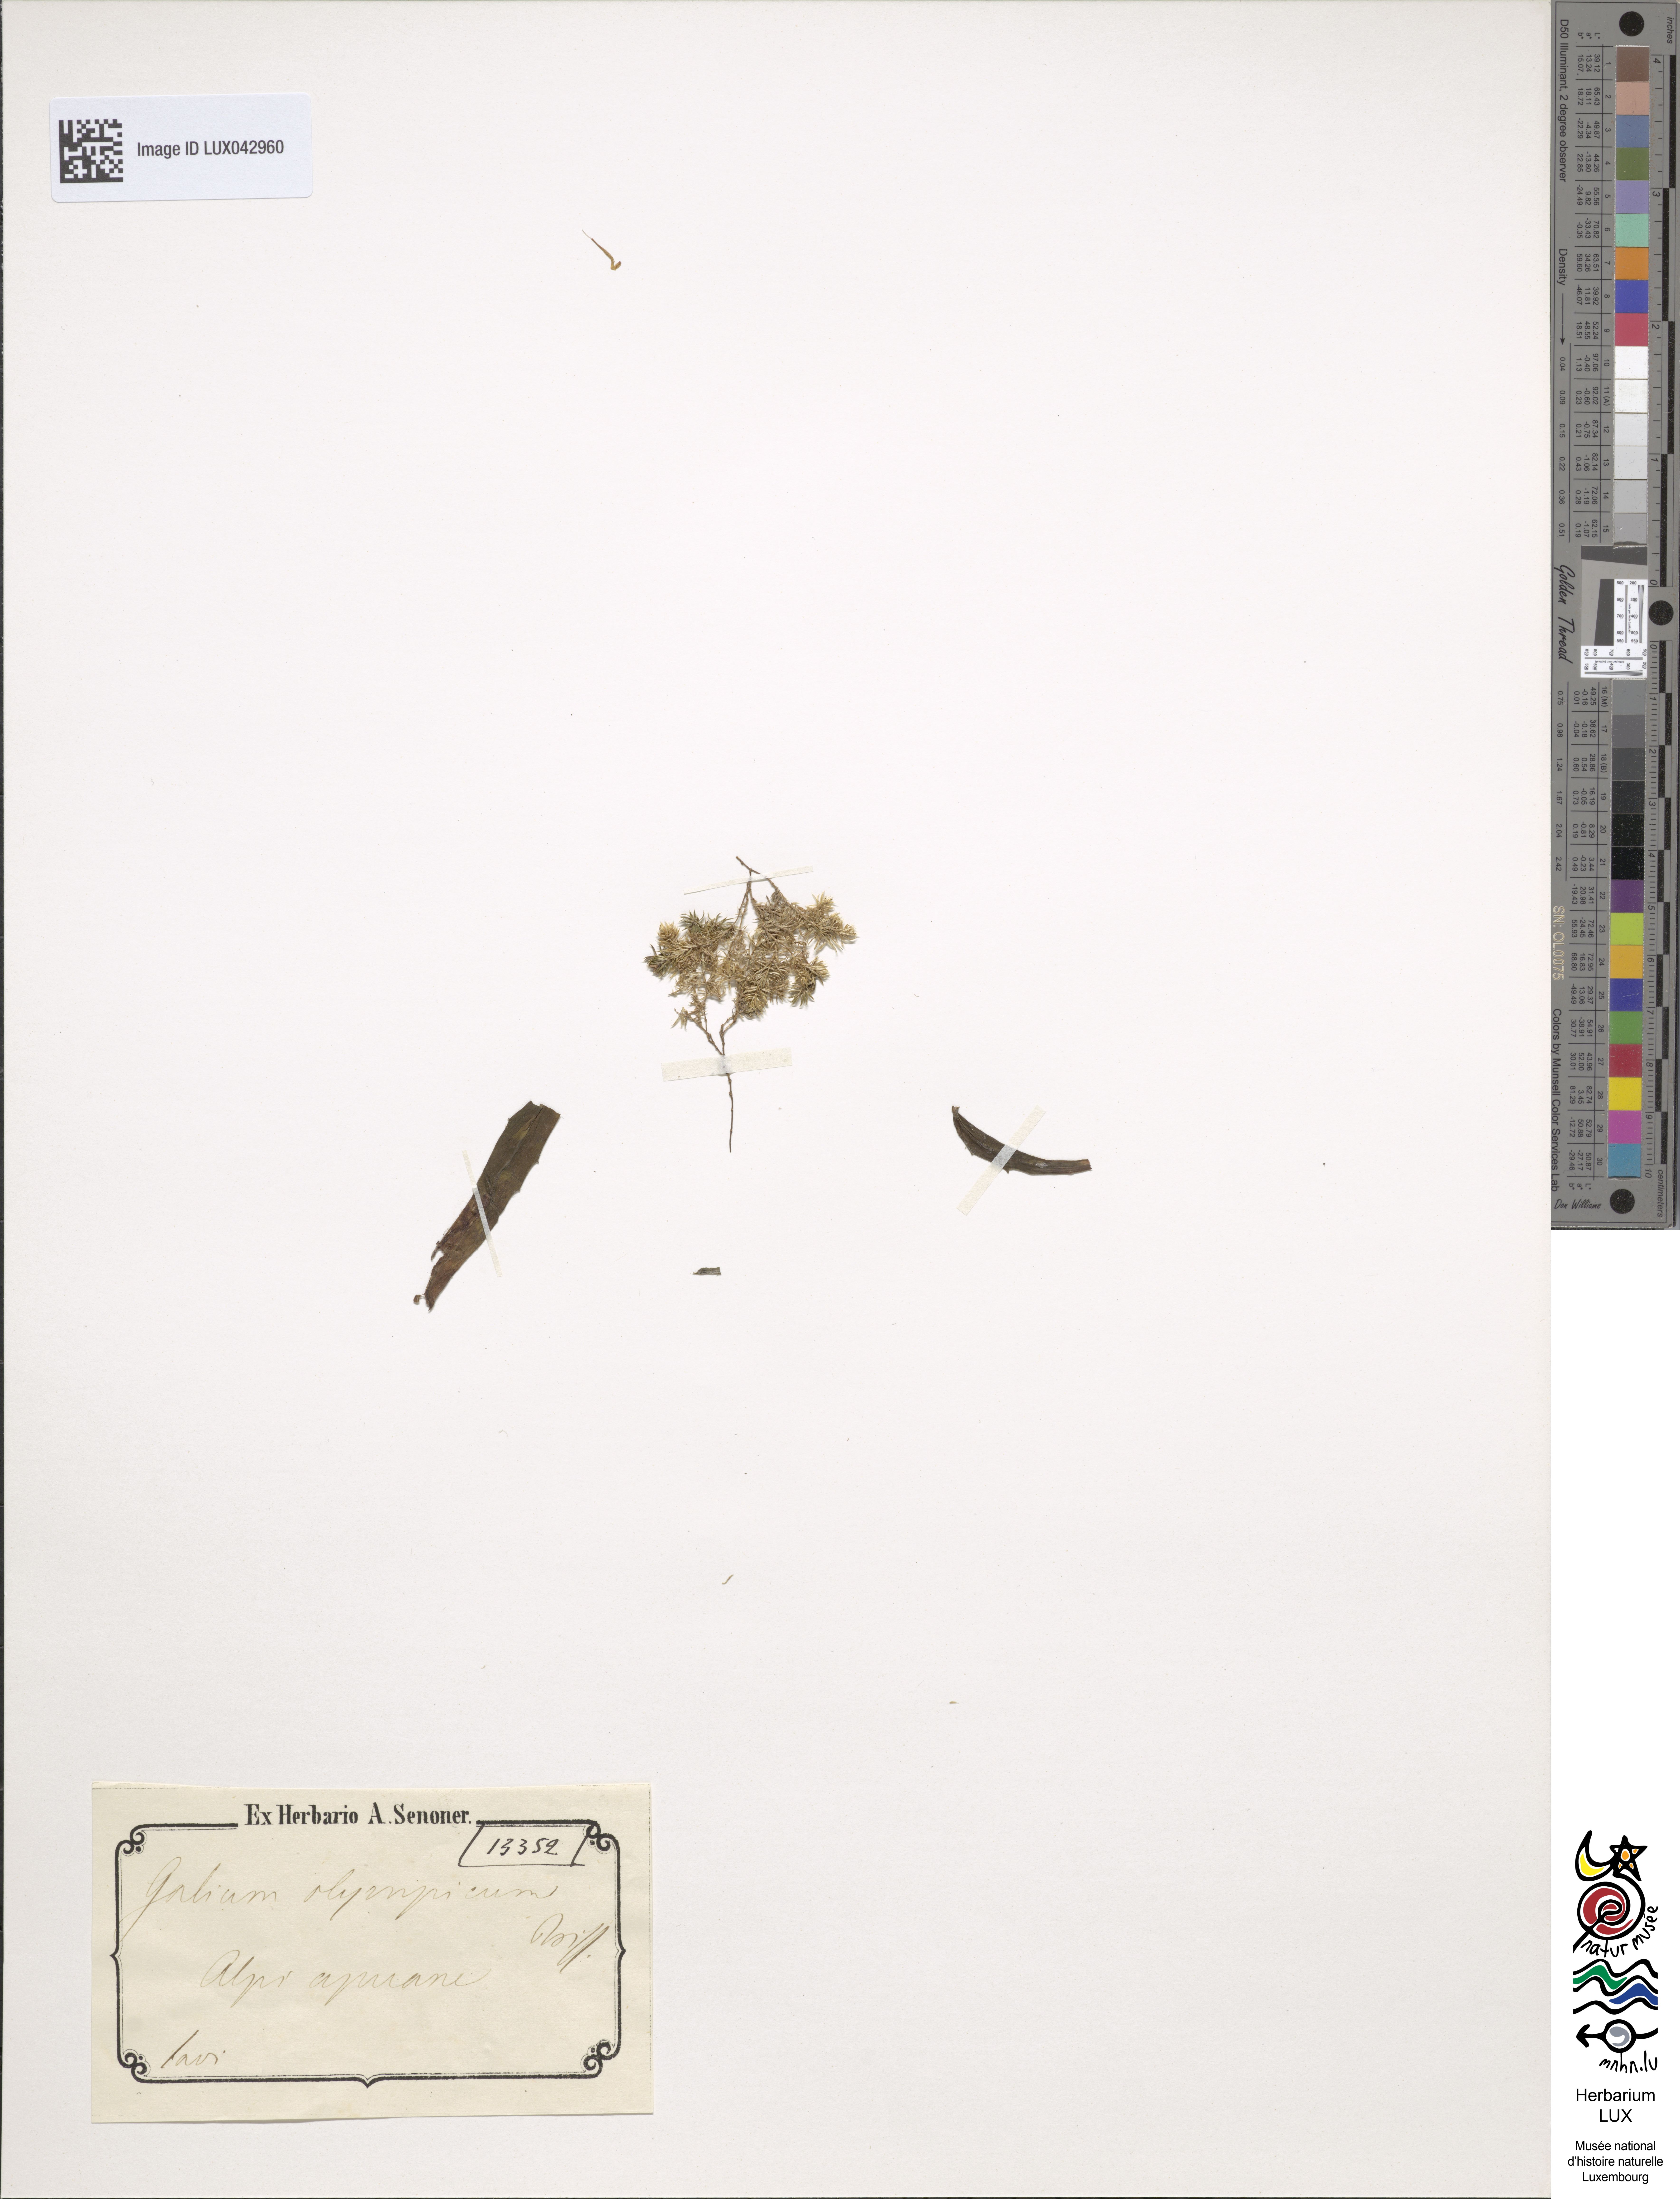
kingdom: Plantae
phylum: Tracheophyta
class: Magnoliopsida
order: Gentianales
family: Rubiaceae
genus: Galium
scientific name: Galium olympicum
